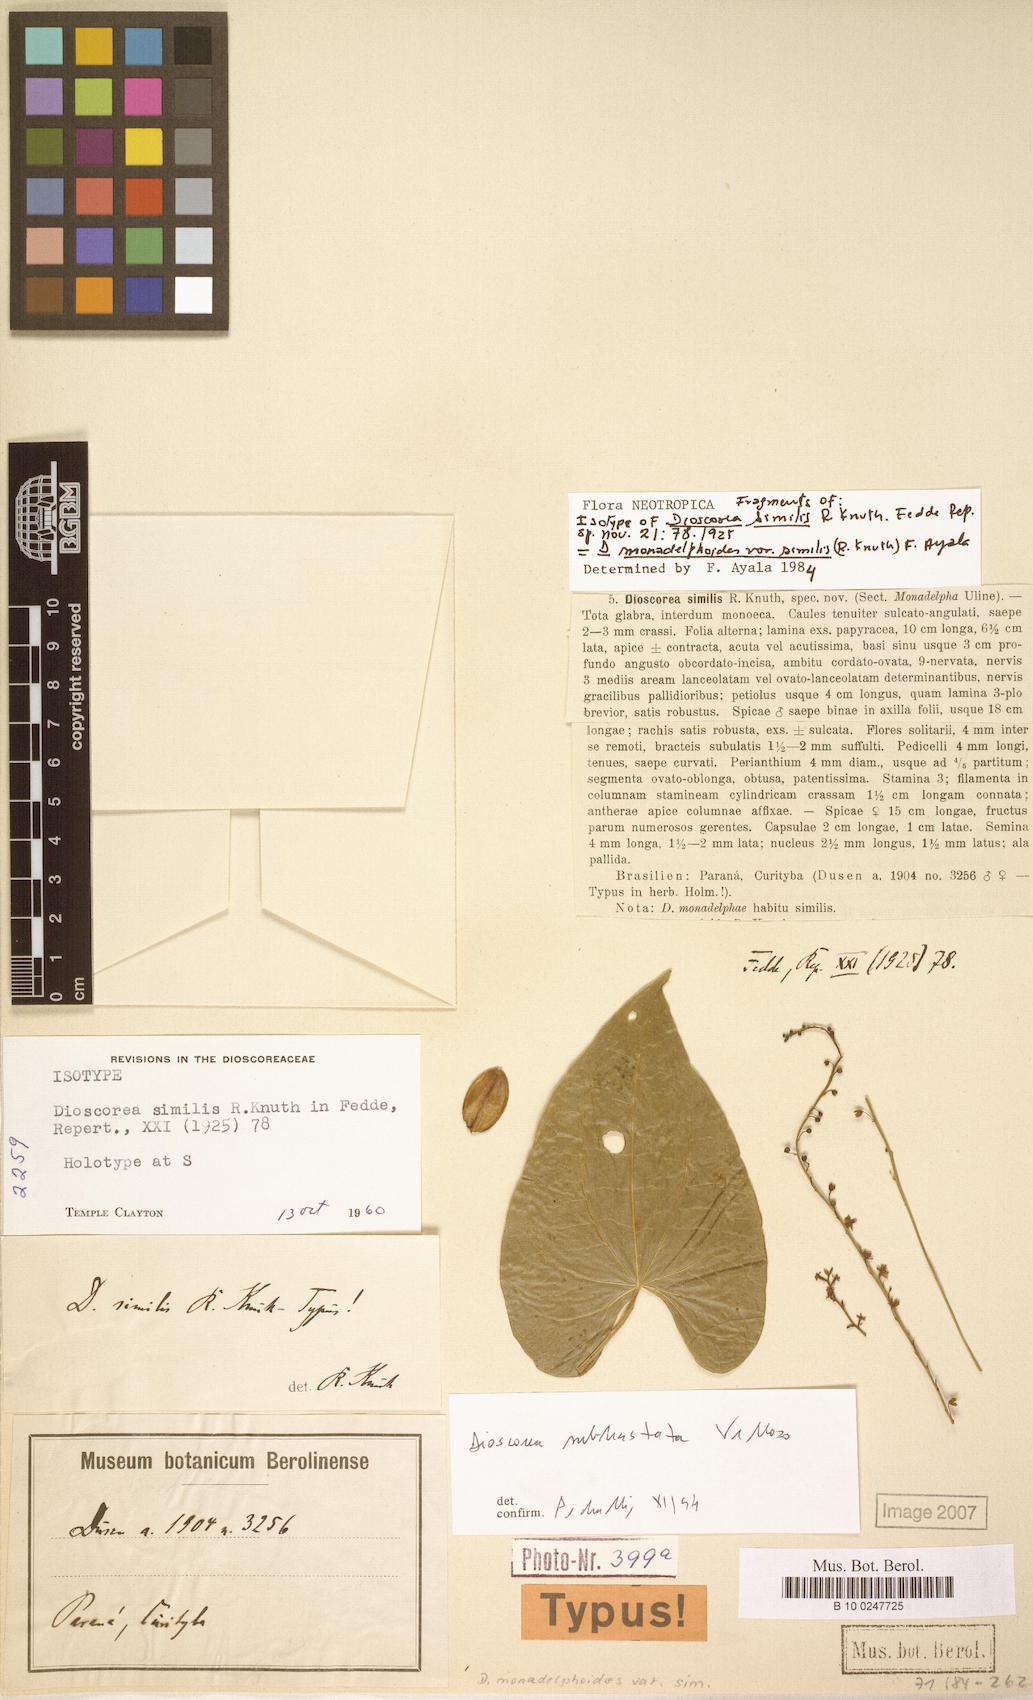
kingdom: Plantae
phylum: Tracheophyta
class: Liliopsida
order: Dioscoreales
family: Dioscoreaceae
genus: Dioscorea
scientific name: Dioscorea subhastata
